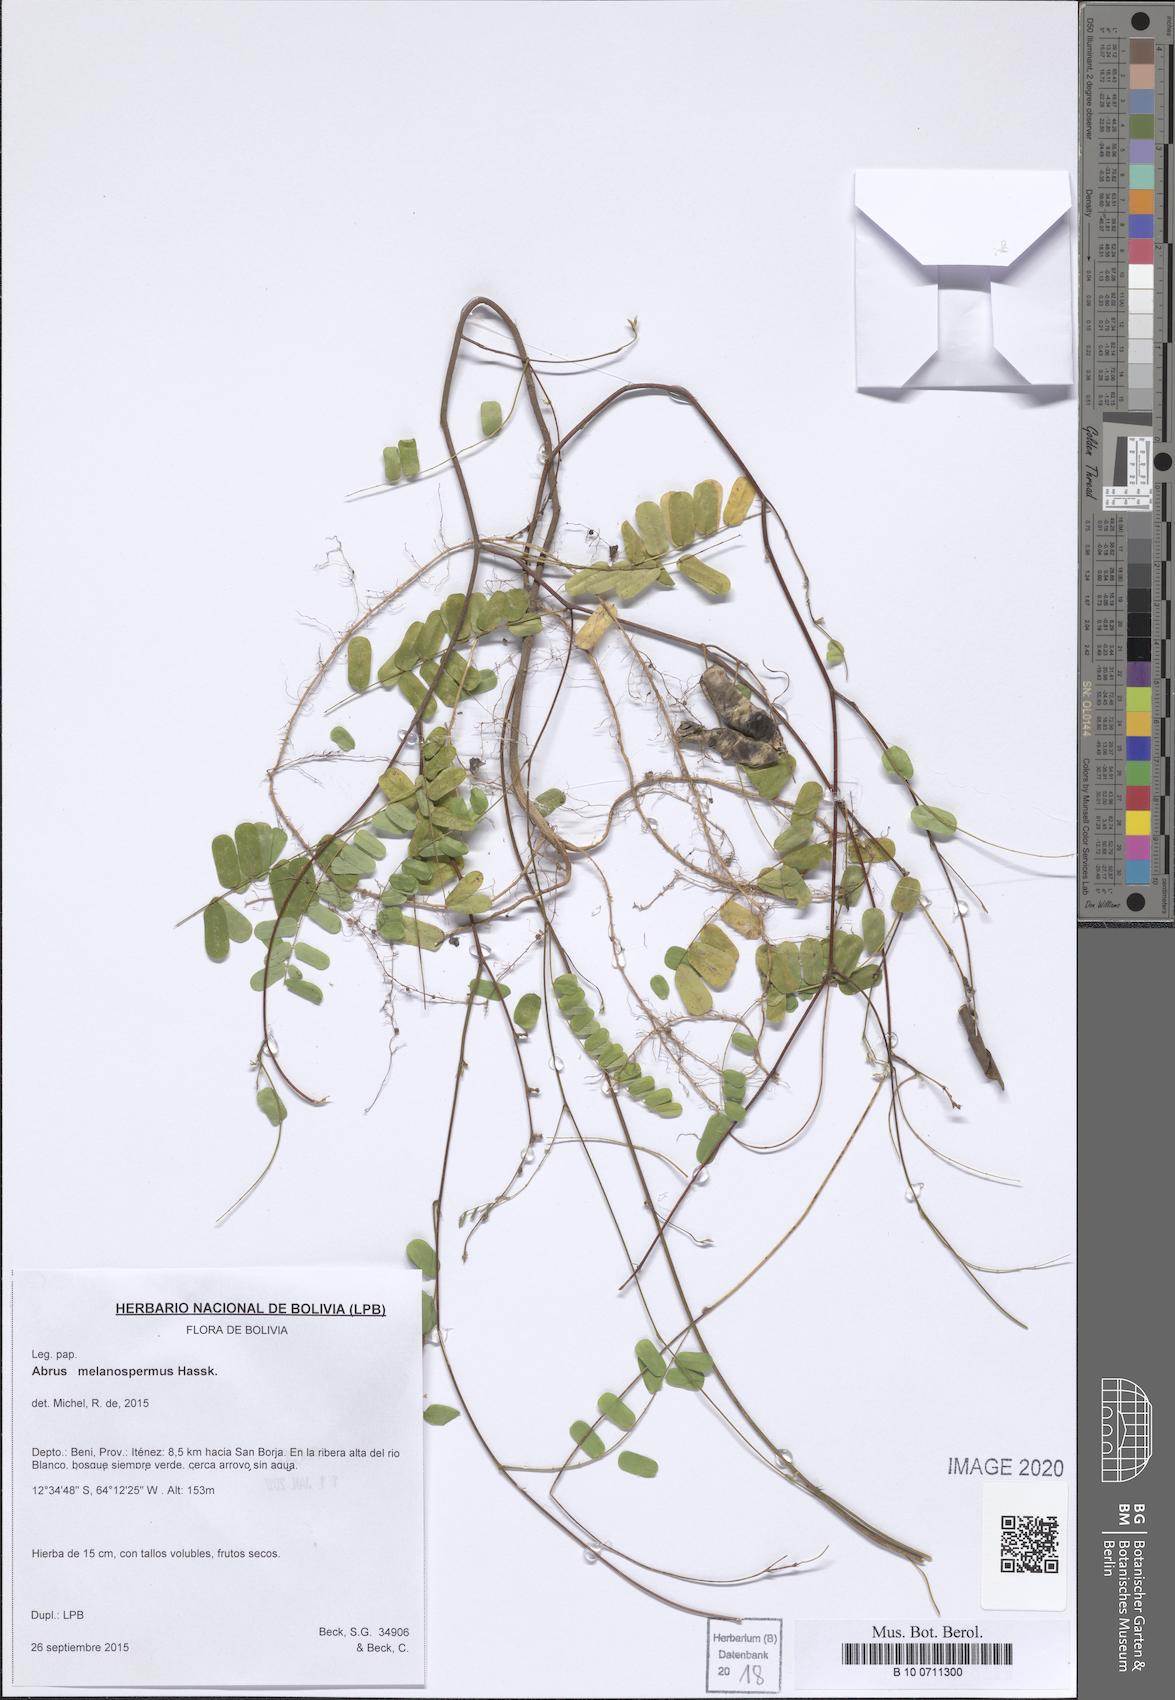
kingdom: Plantae
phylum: Tracheophyta
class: Magnoliopsida
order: Fabales
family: Fabaceae
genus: Abrus
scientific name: Abrus melanospermus
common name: Licorice-root
